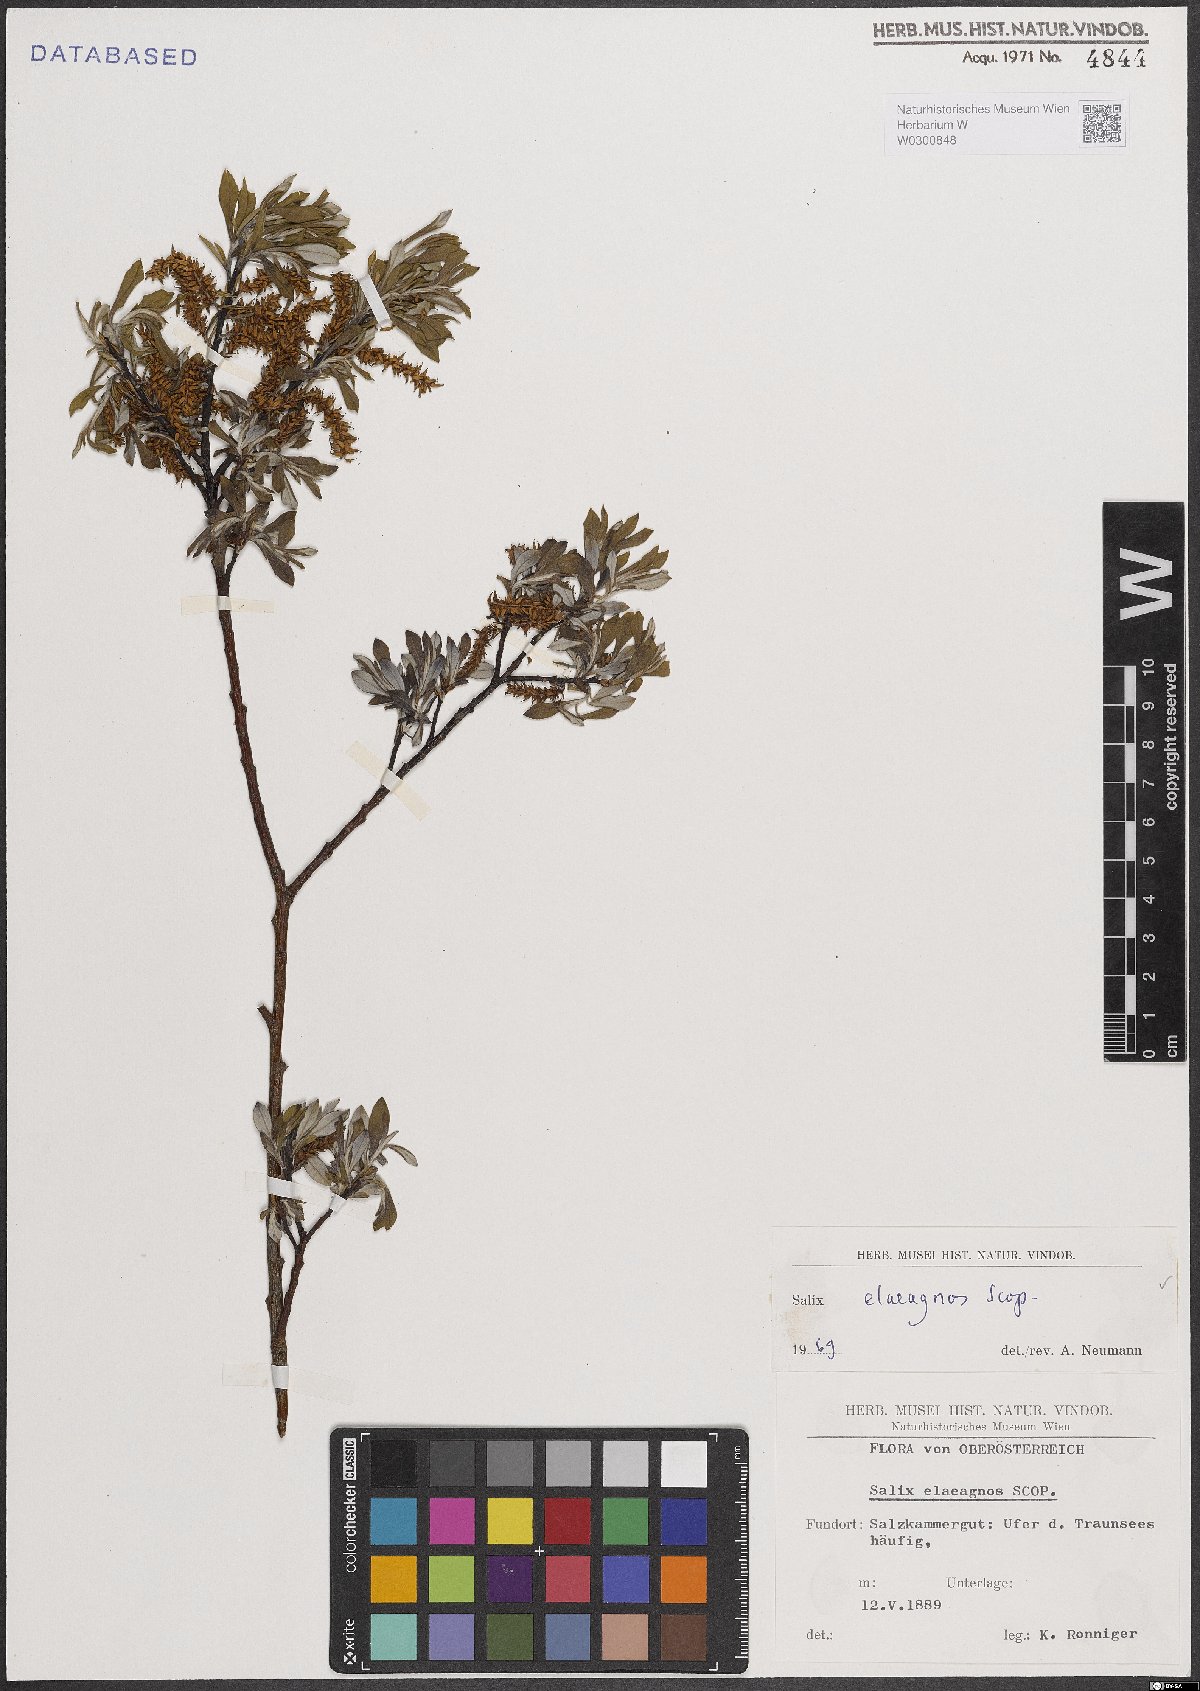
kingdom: Plantae
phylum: Tracheophyta
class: Magnoliopsida
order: Malpighiales
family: Salicaceae
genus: Salix
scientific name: Salix eleagnos
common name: Elaeagnus willow
